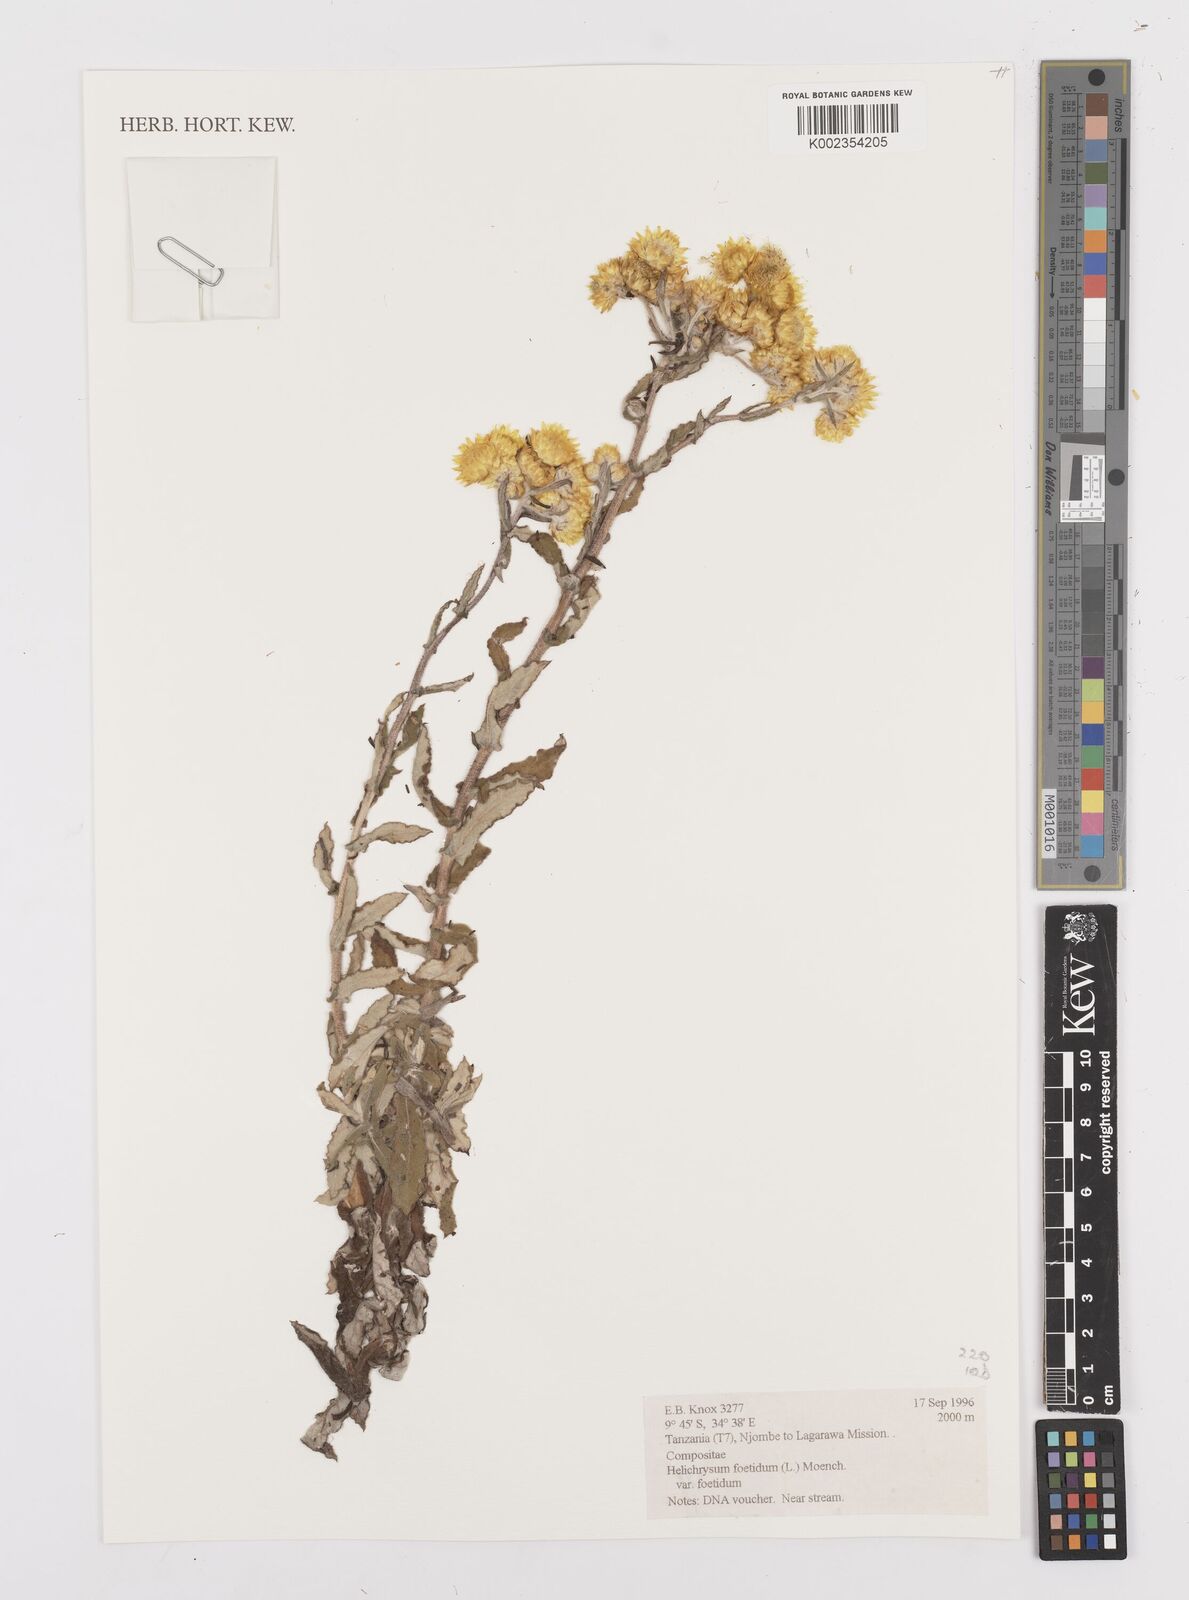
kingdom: Plantae
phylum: Tracheophyta
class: Magnoliopsida
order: Asterales
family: Asteraceae
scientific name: Asteraceae
